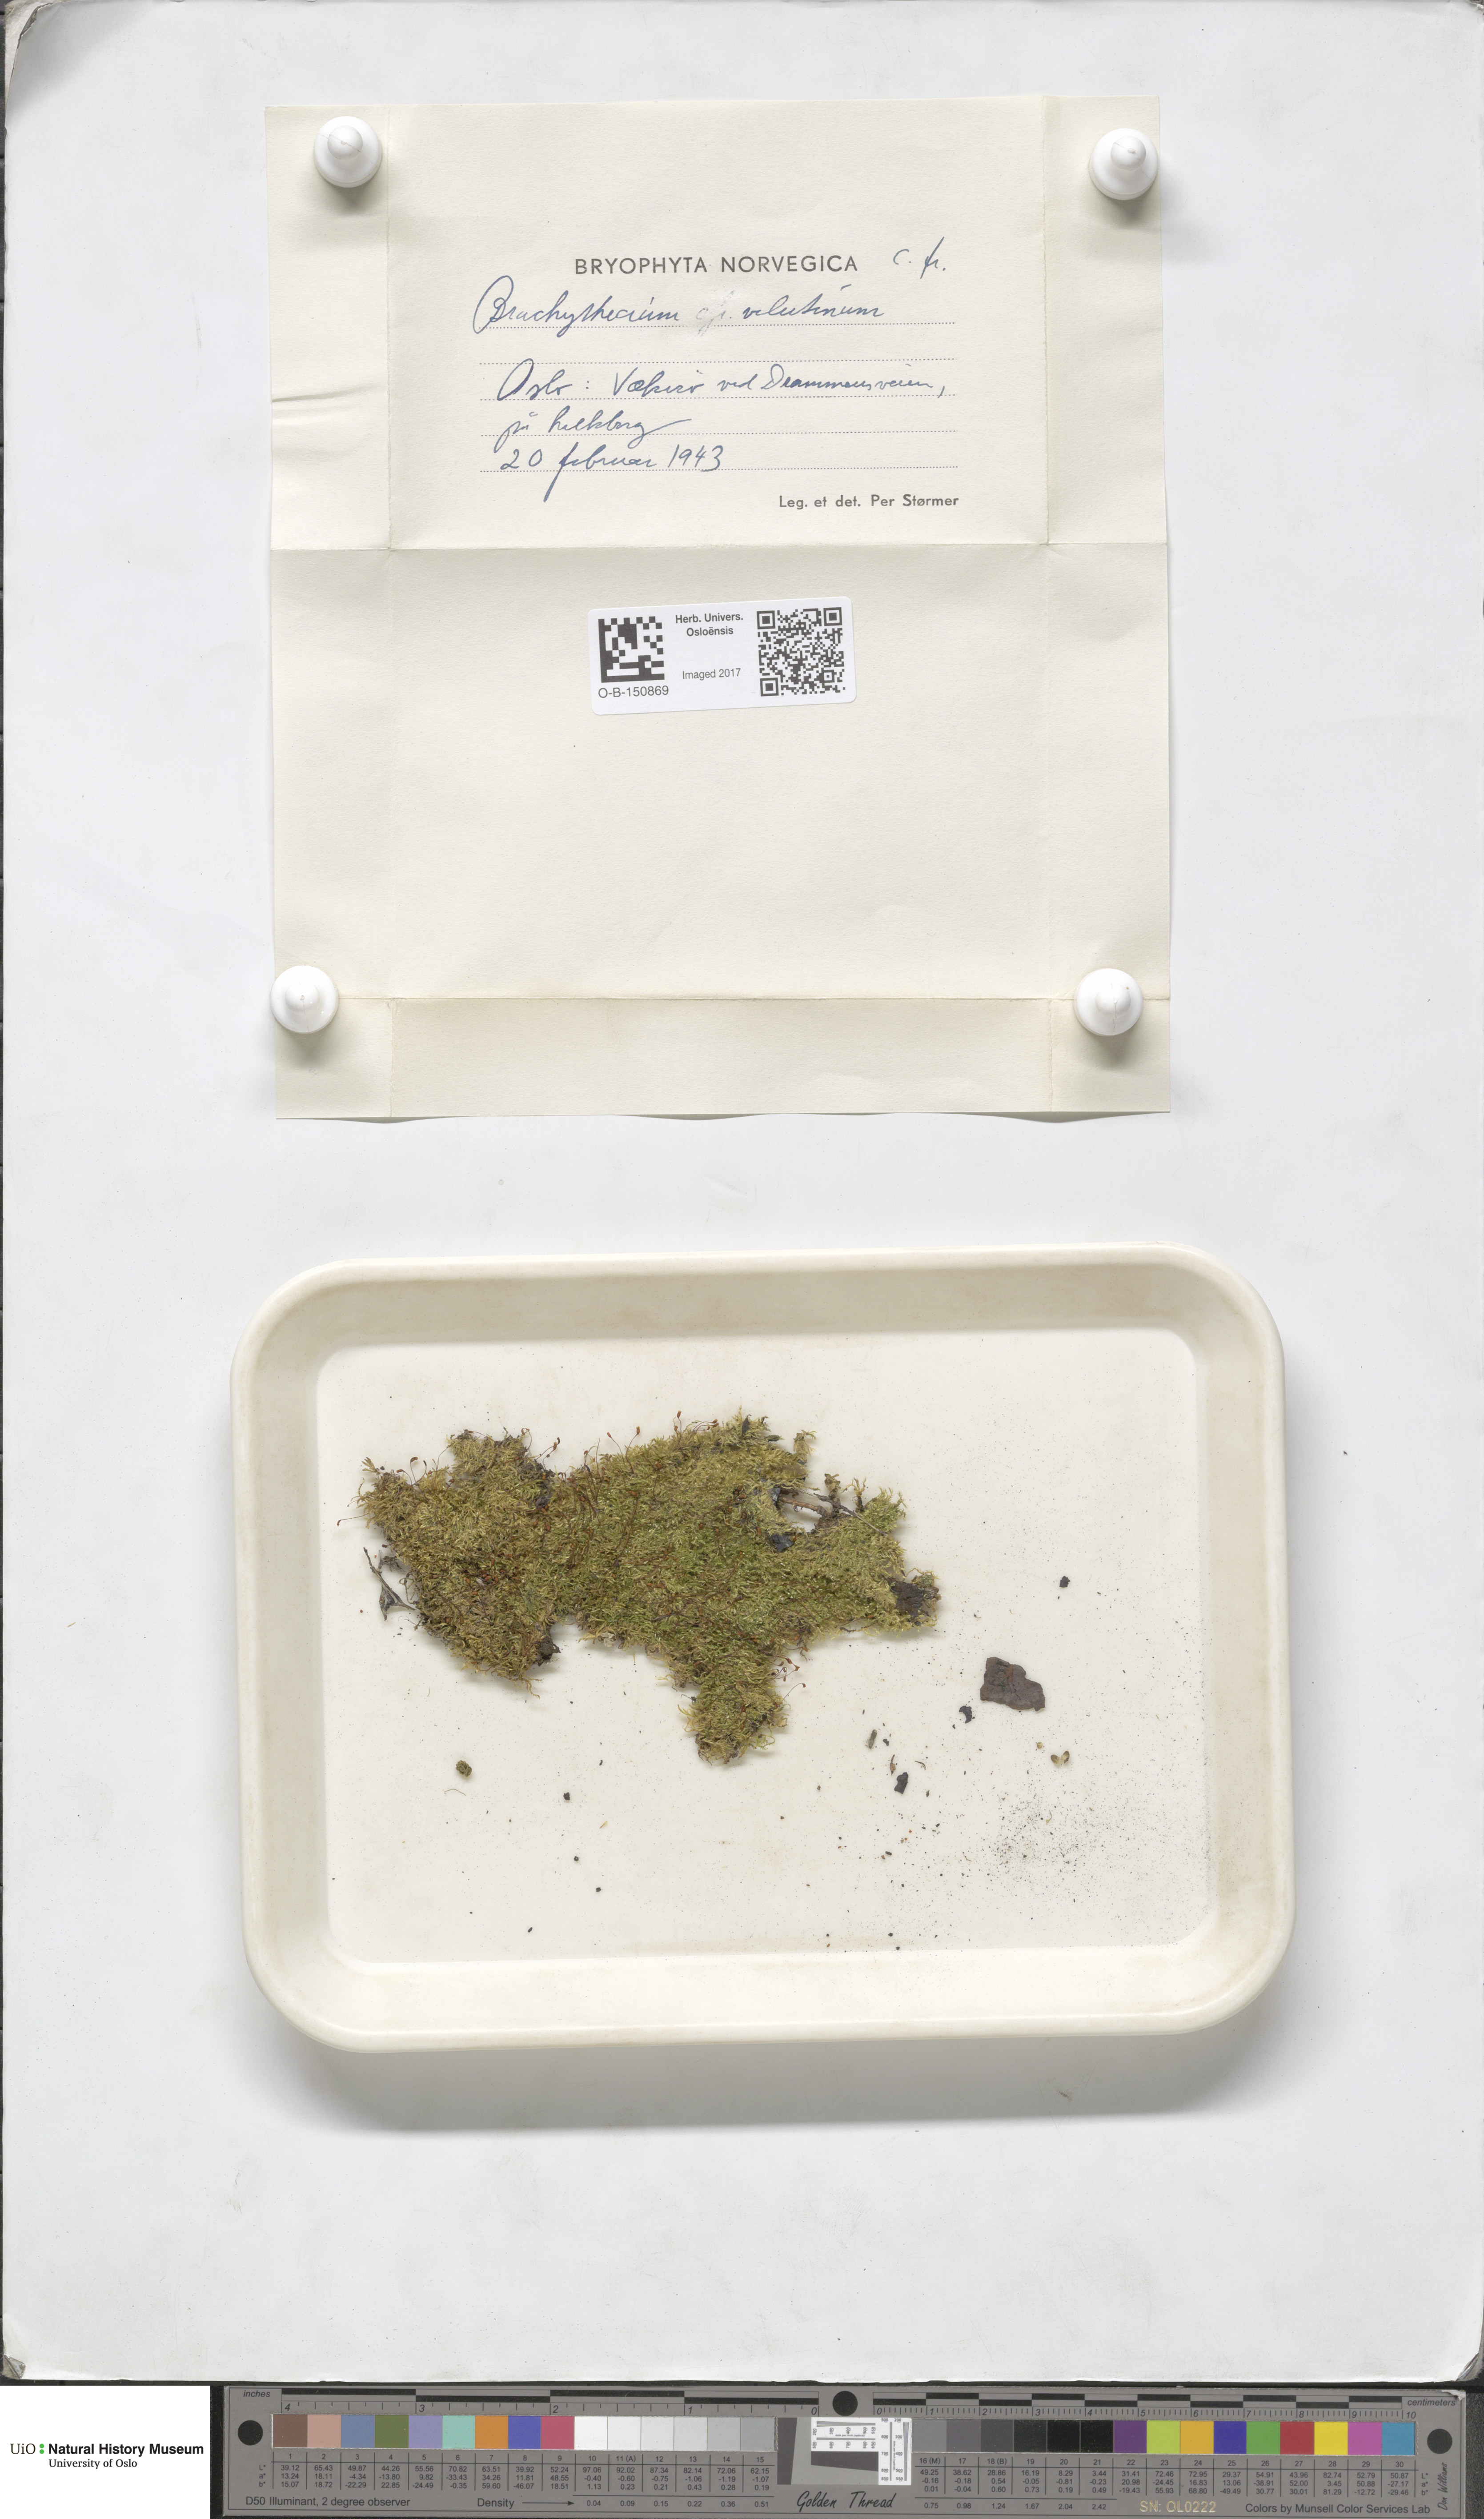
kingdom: Plantae
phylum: Bryophyta
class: Bryopsida
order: Hypnales
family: Brachytheciaceae
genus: Brachytheciastrum
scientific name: Brachytheciastrum velutinum
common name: Velvet feather-moss
